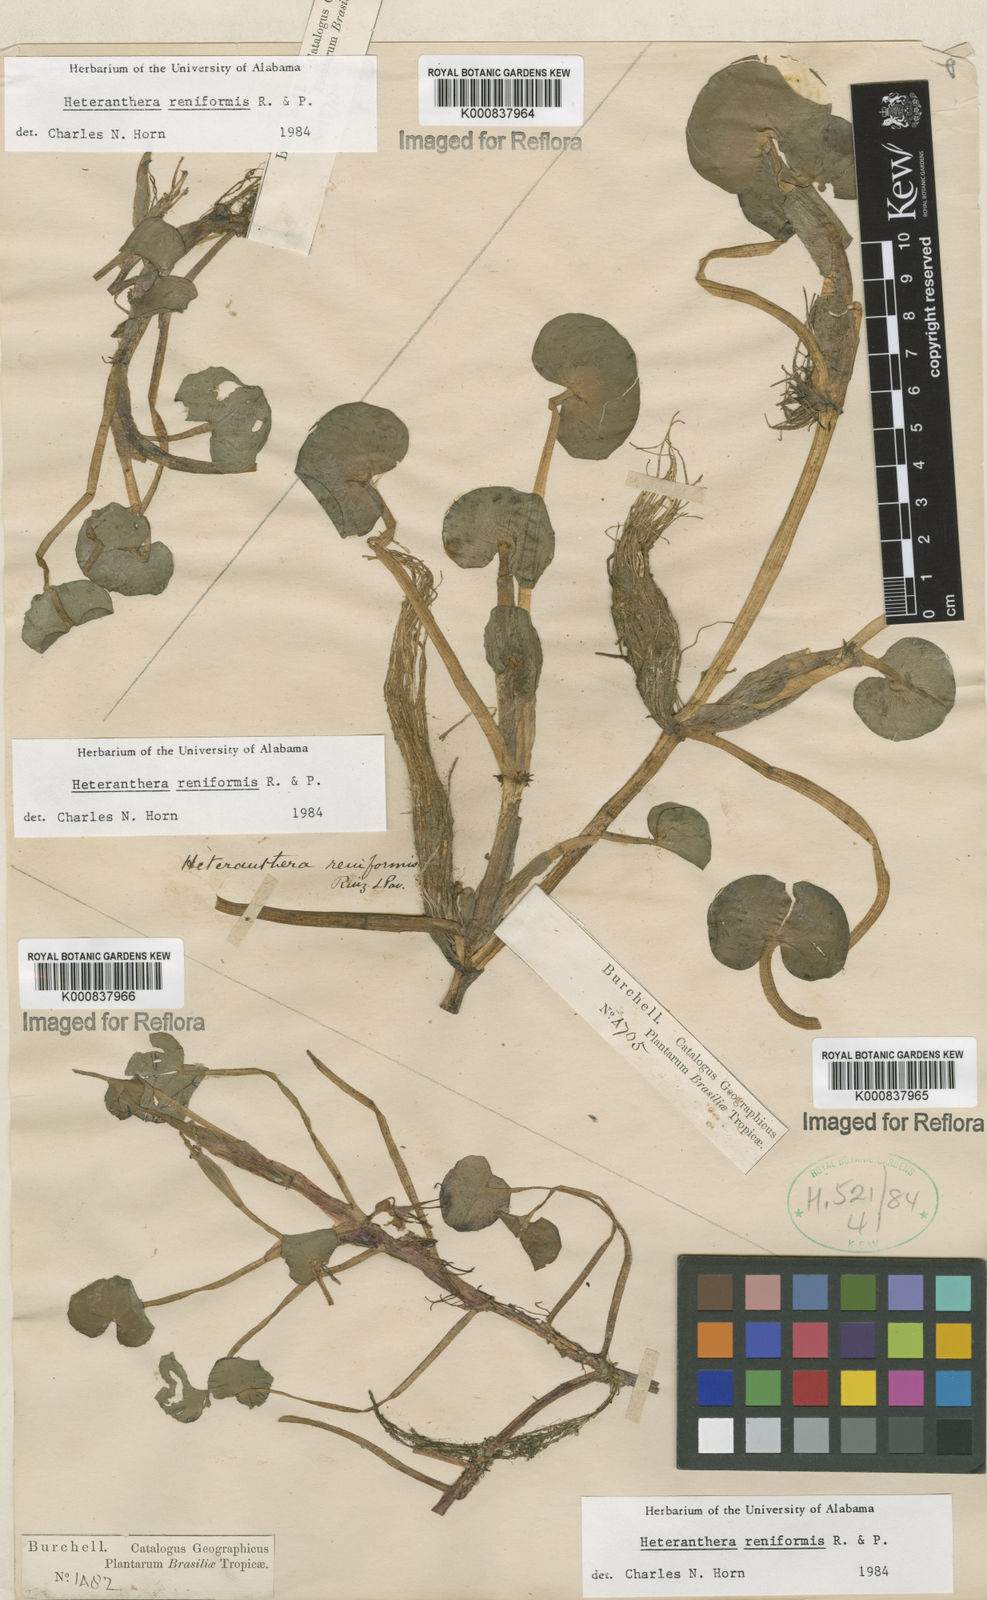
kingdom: Plantae
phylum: Tracheophyta
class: Liliopsida
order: Commelinales
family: Pontederiaceae
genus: Heteranthera
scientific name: Heteranthera reniformis
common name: Kidneyleaf mudplantain
